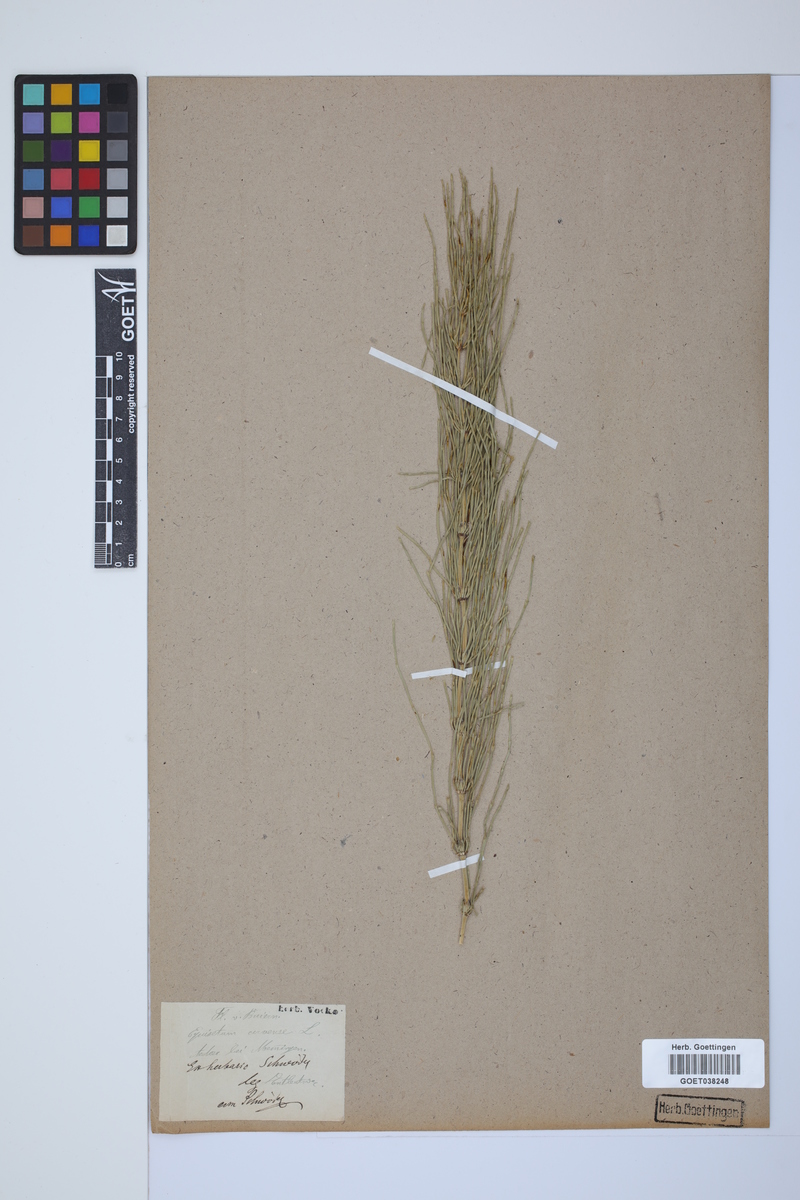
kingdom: Plantae
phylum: Tracheophyta
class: Polypodiopsida
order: Equisetales
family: Equisetaceae
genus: Equisetum
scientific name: Equisetum arvense
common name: Field horsetail
